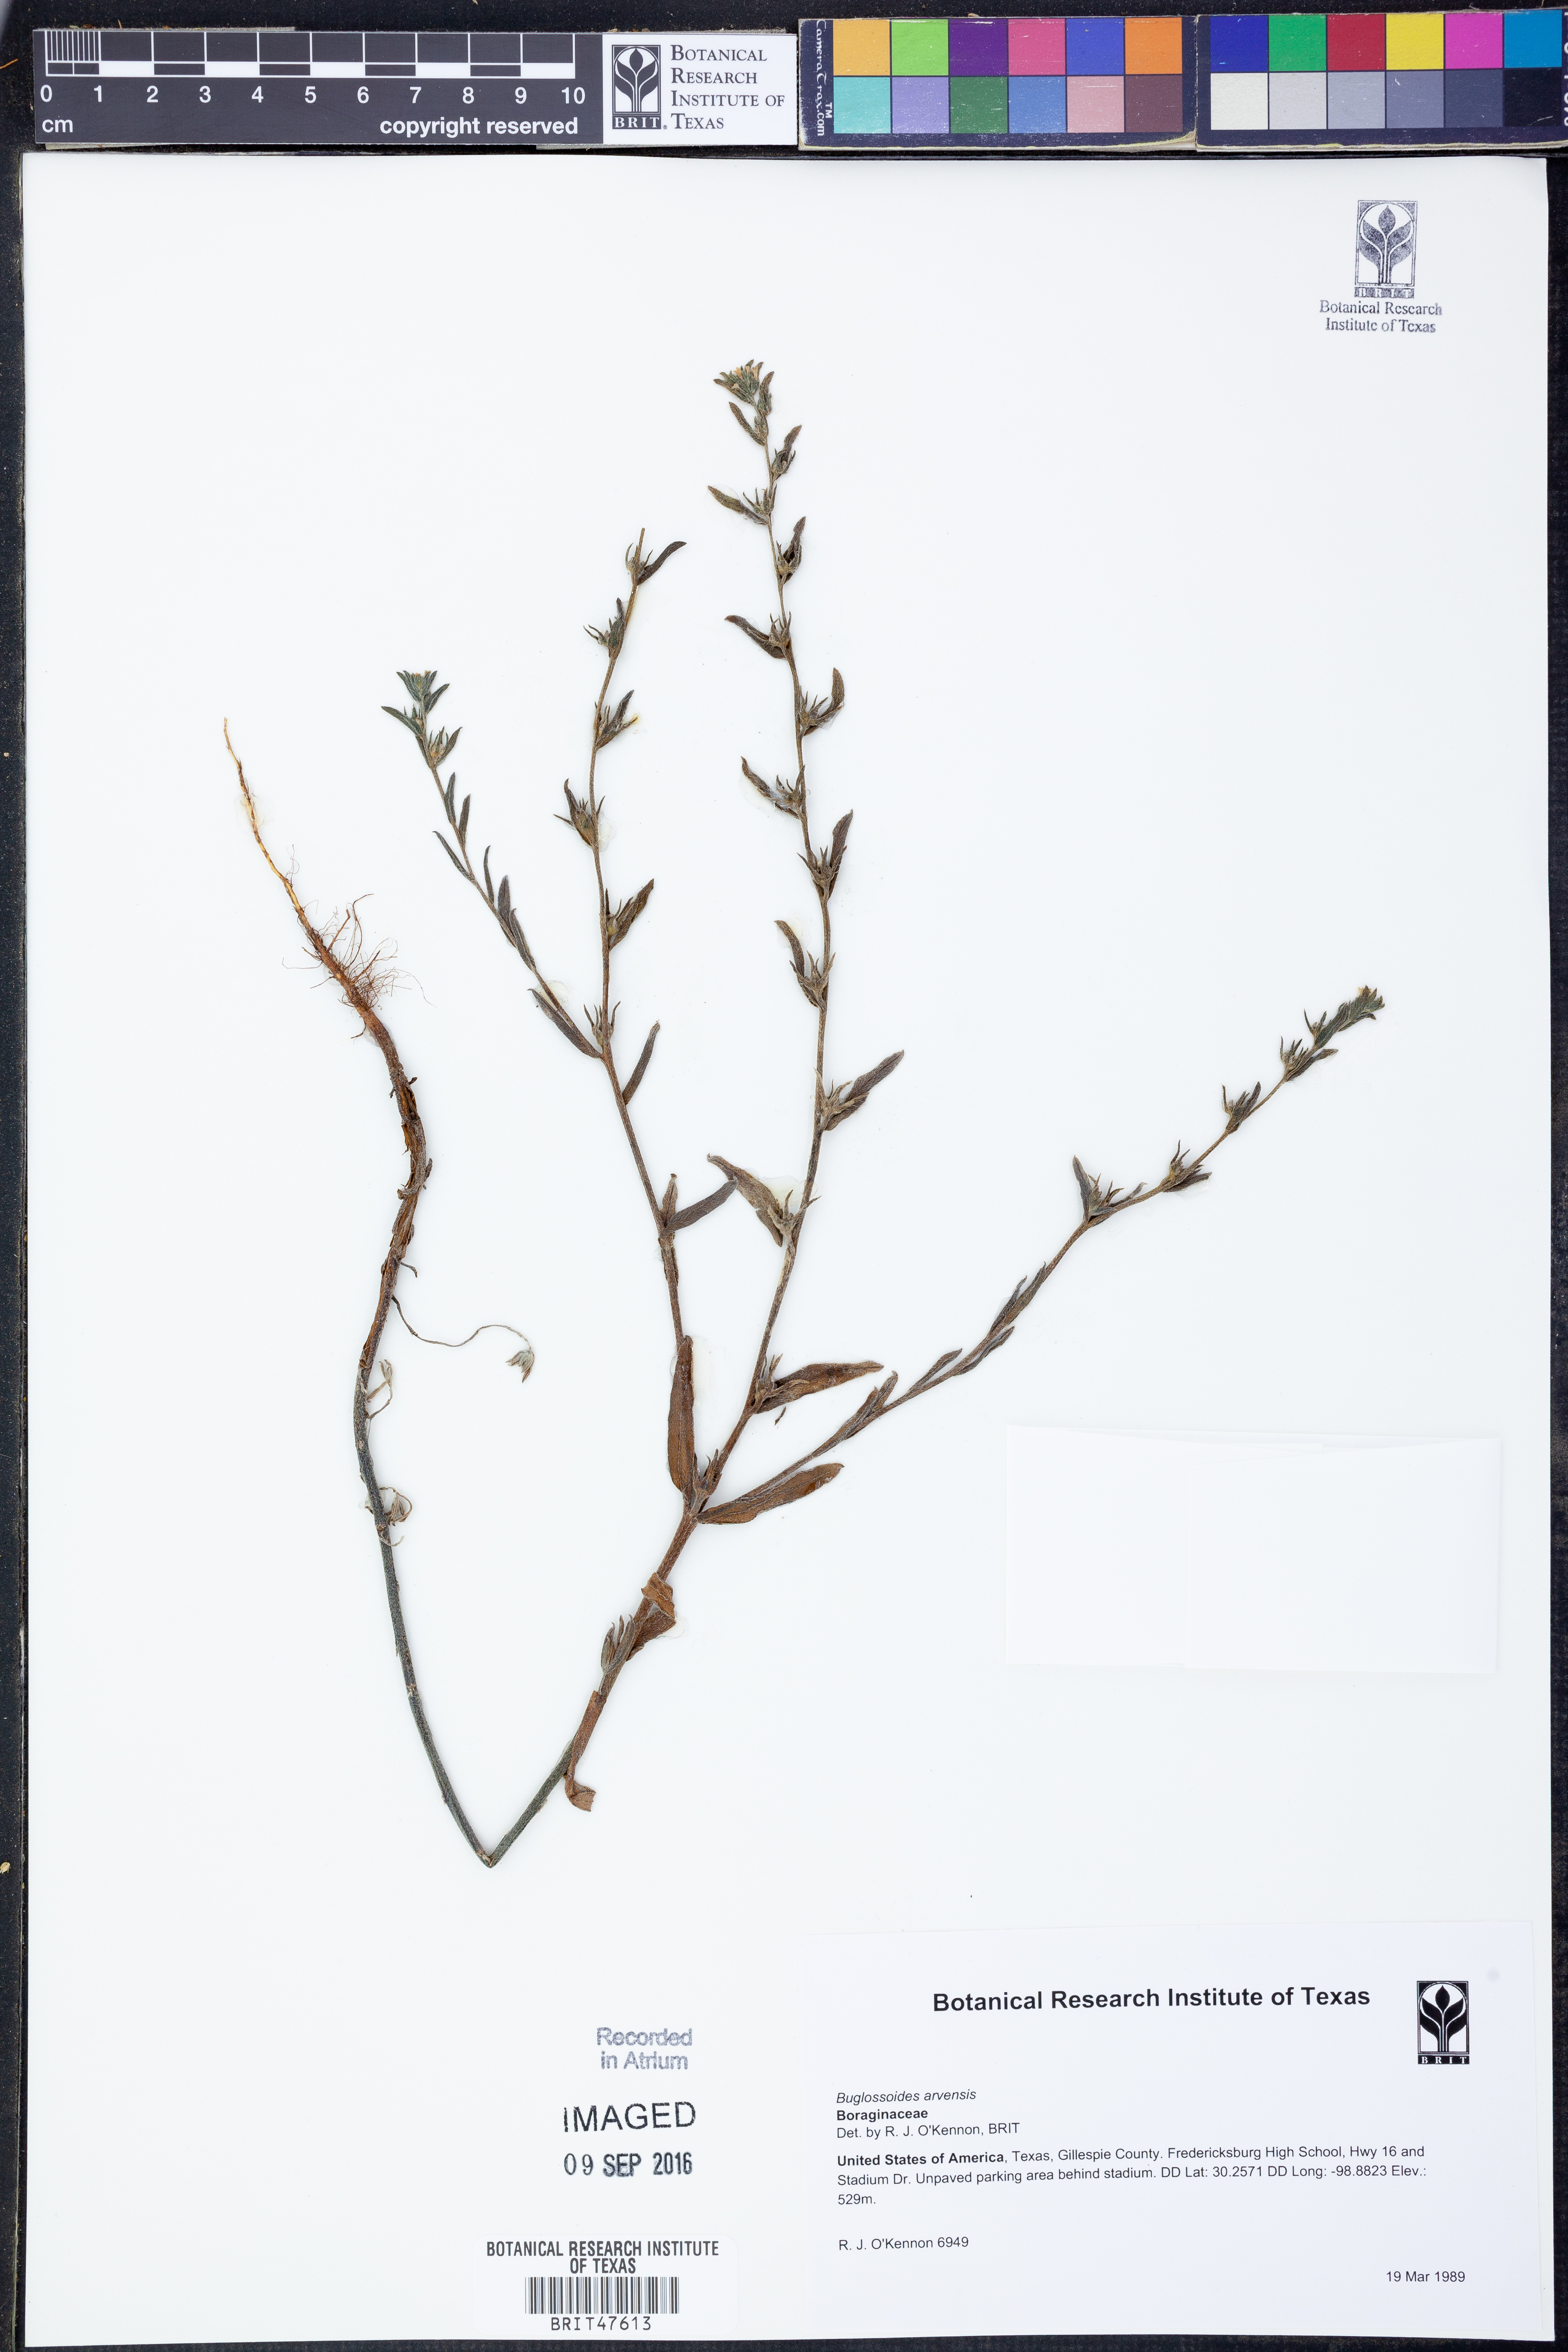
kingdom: Plantae
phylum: Tracheophyta
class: Magnoliopsida
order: Boraginales
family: Boraginaceae
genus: Buglossoides
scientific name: Buglossoides arvensis
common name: Corn gromwell
